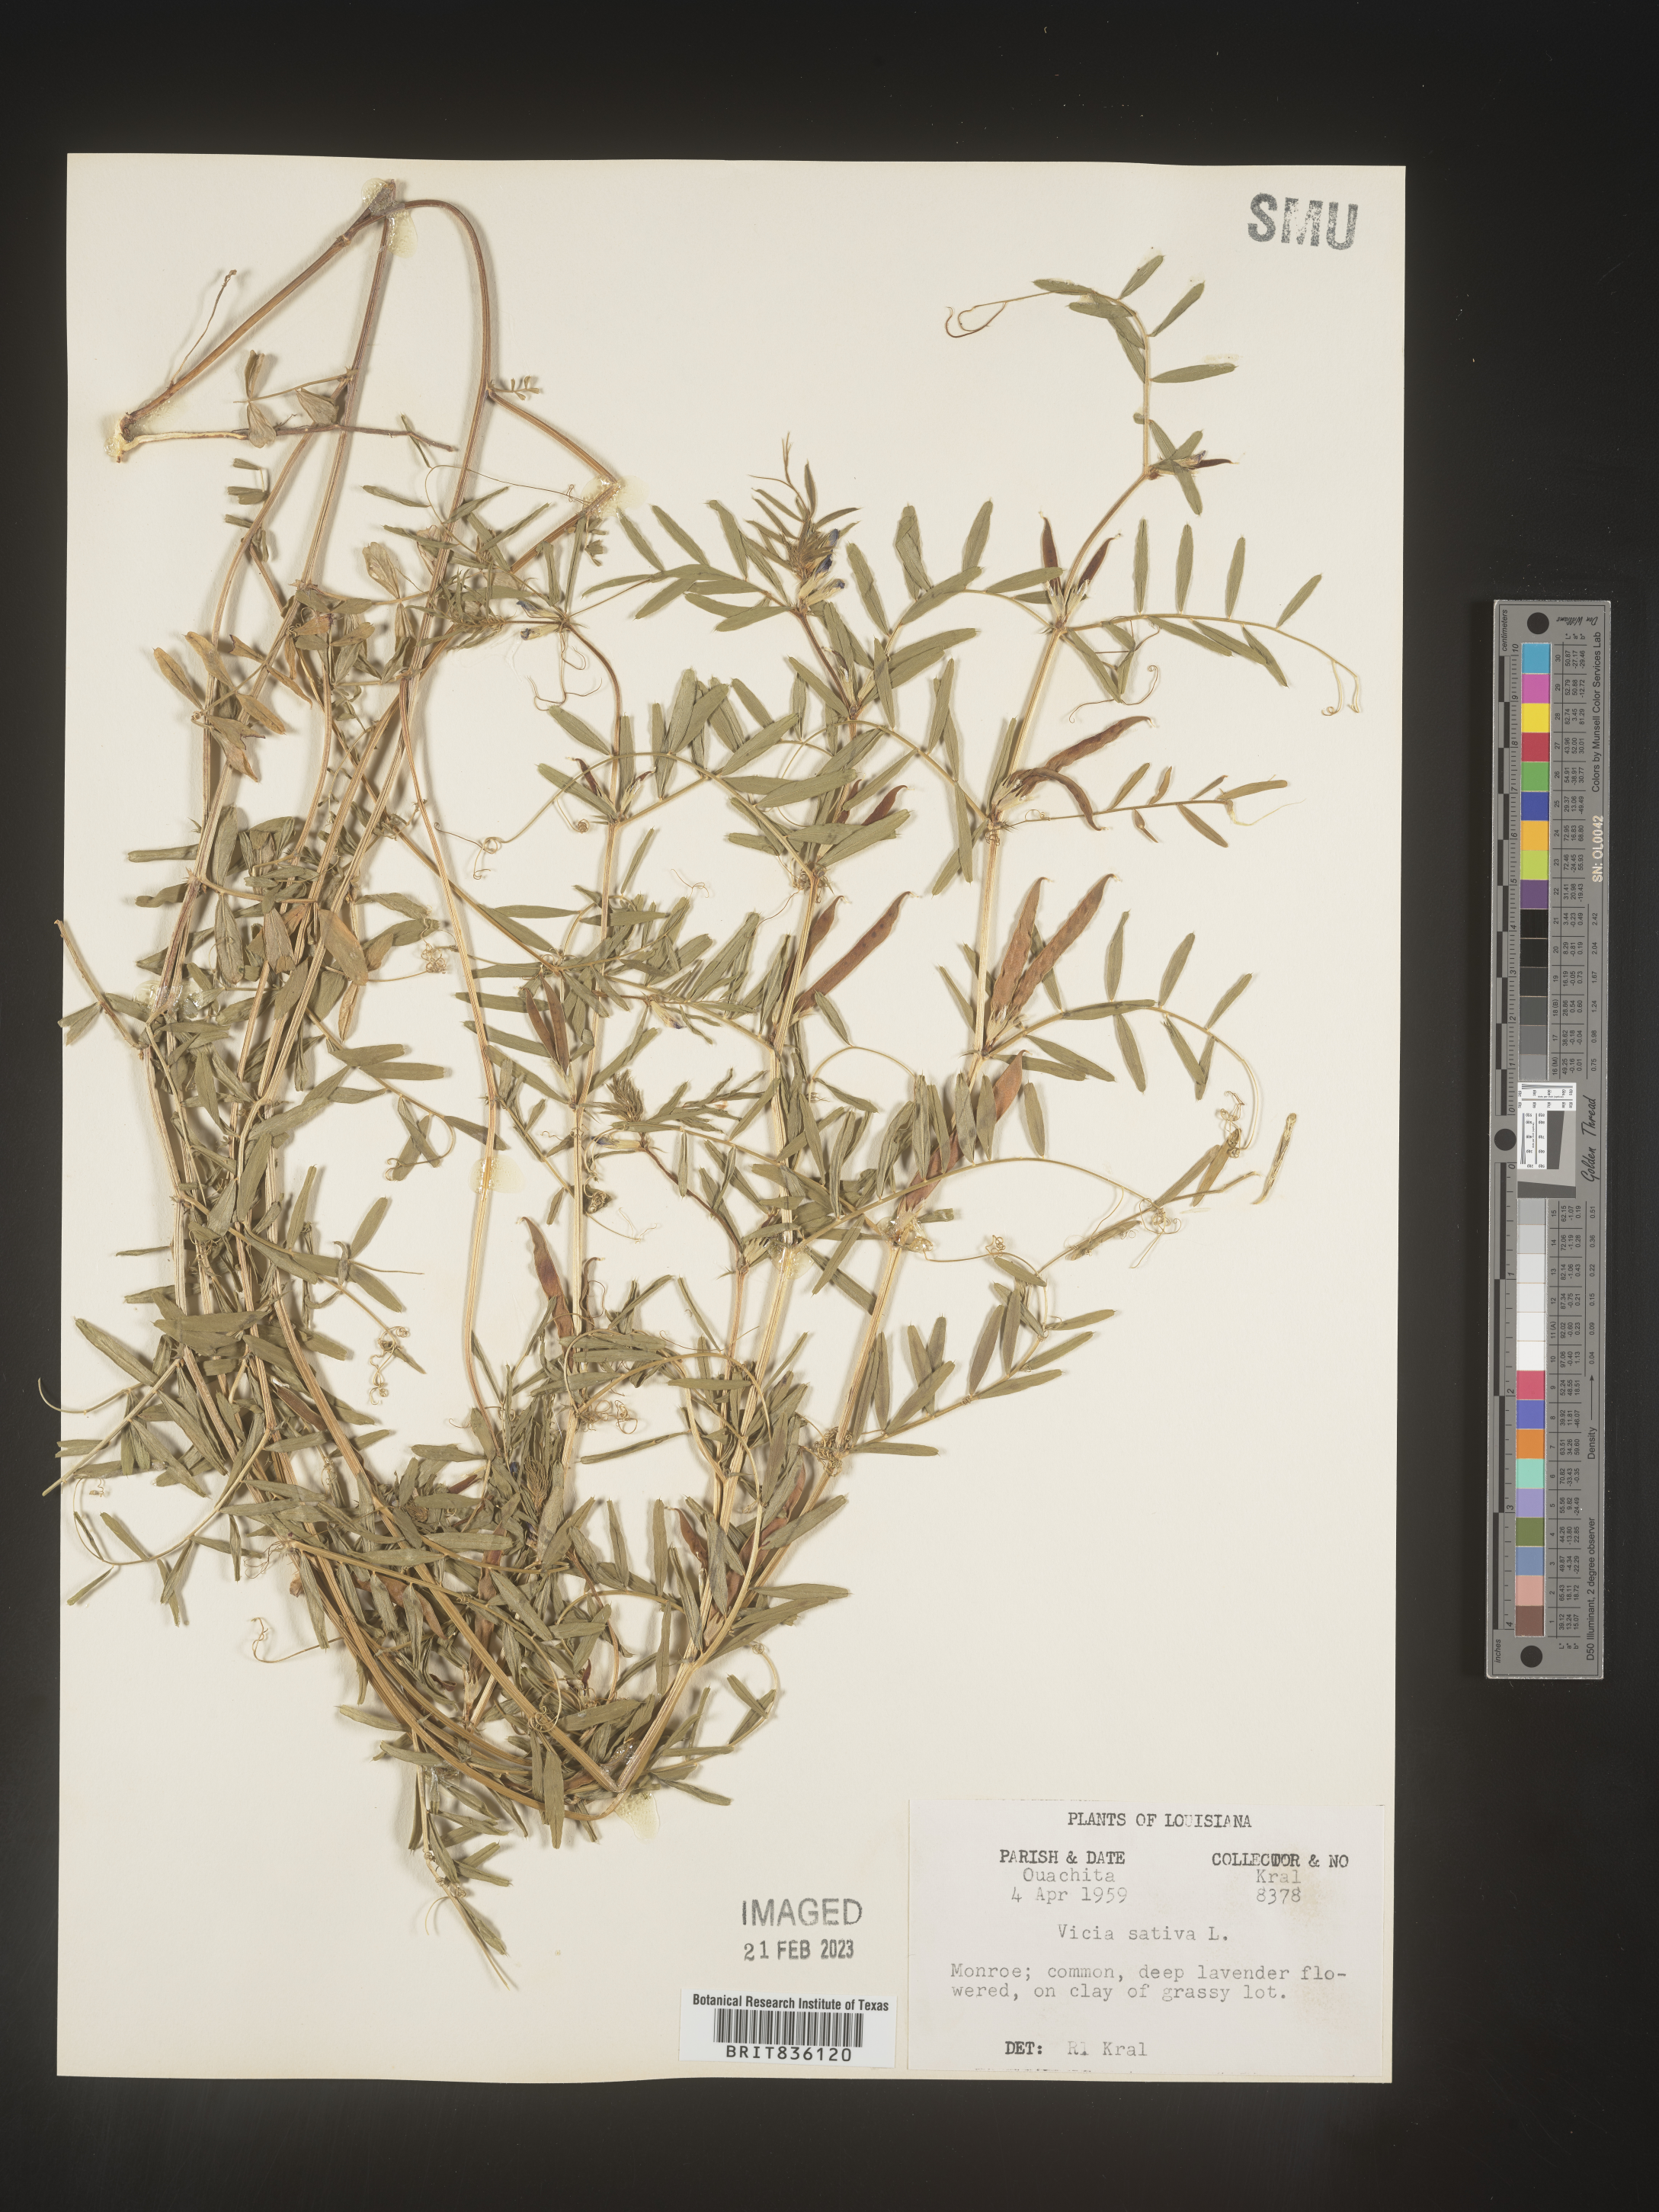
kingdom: Plantae
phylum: Tracheophyta
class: Magnoliopsida
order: Fabales
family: Fabaceae
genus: Vicia
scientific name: Vicia sativa
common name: Garden vetch
